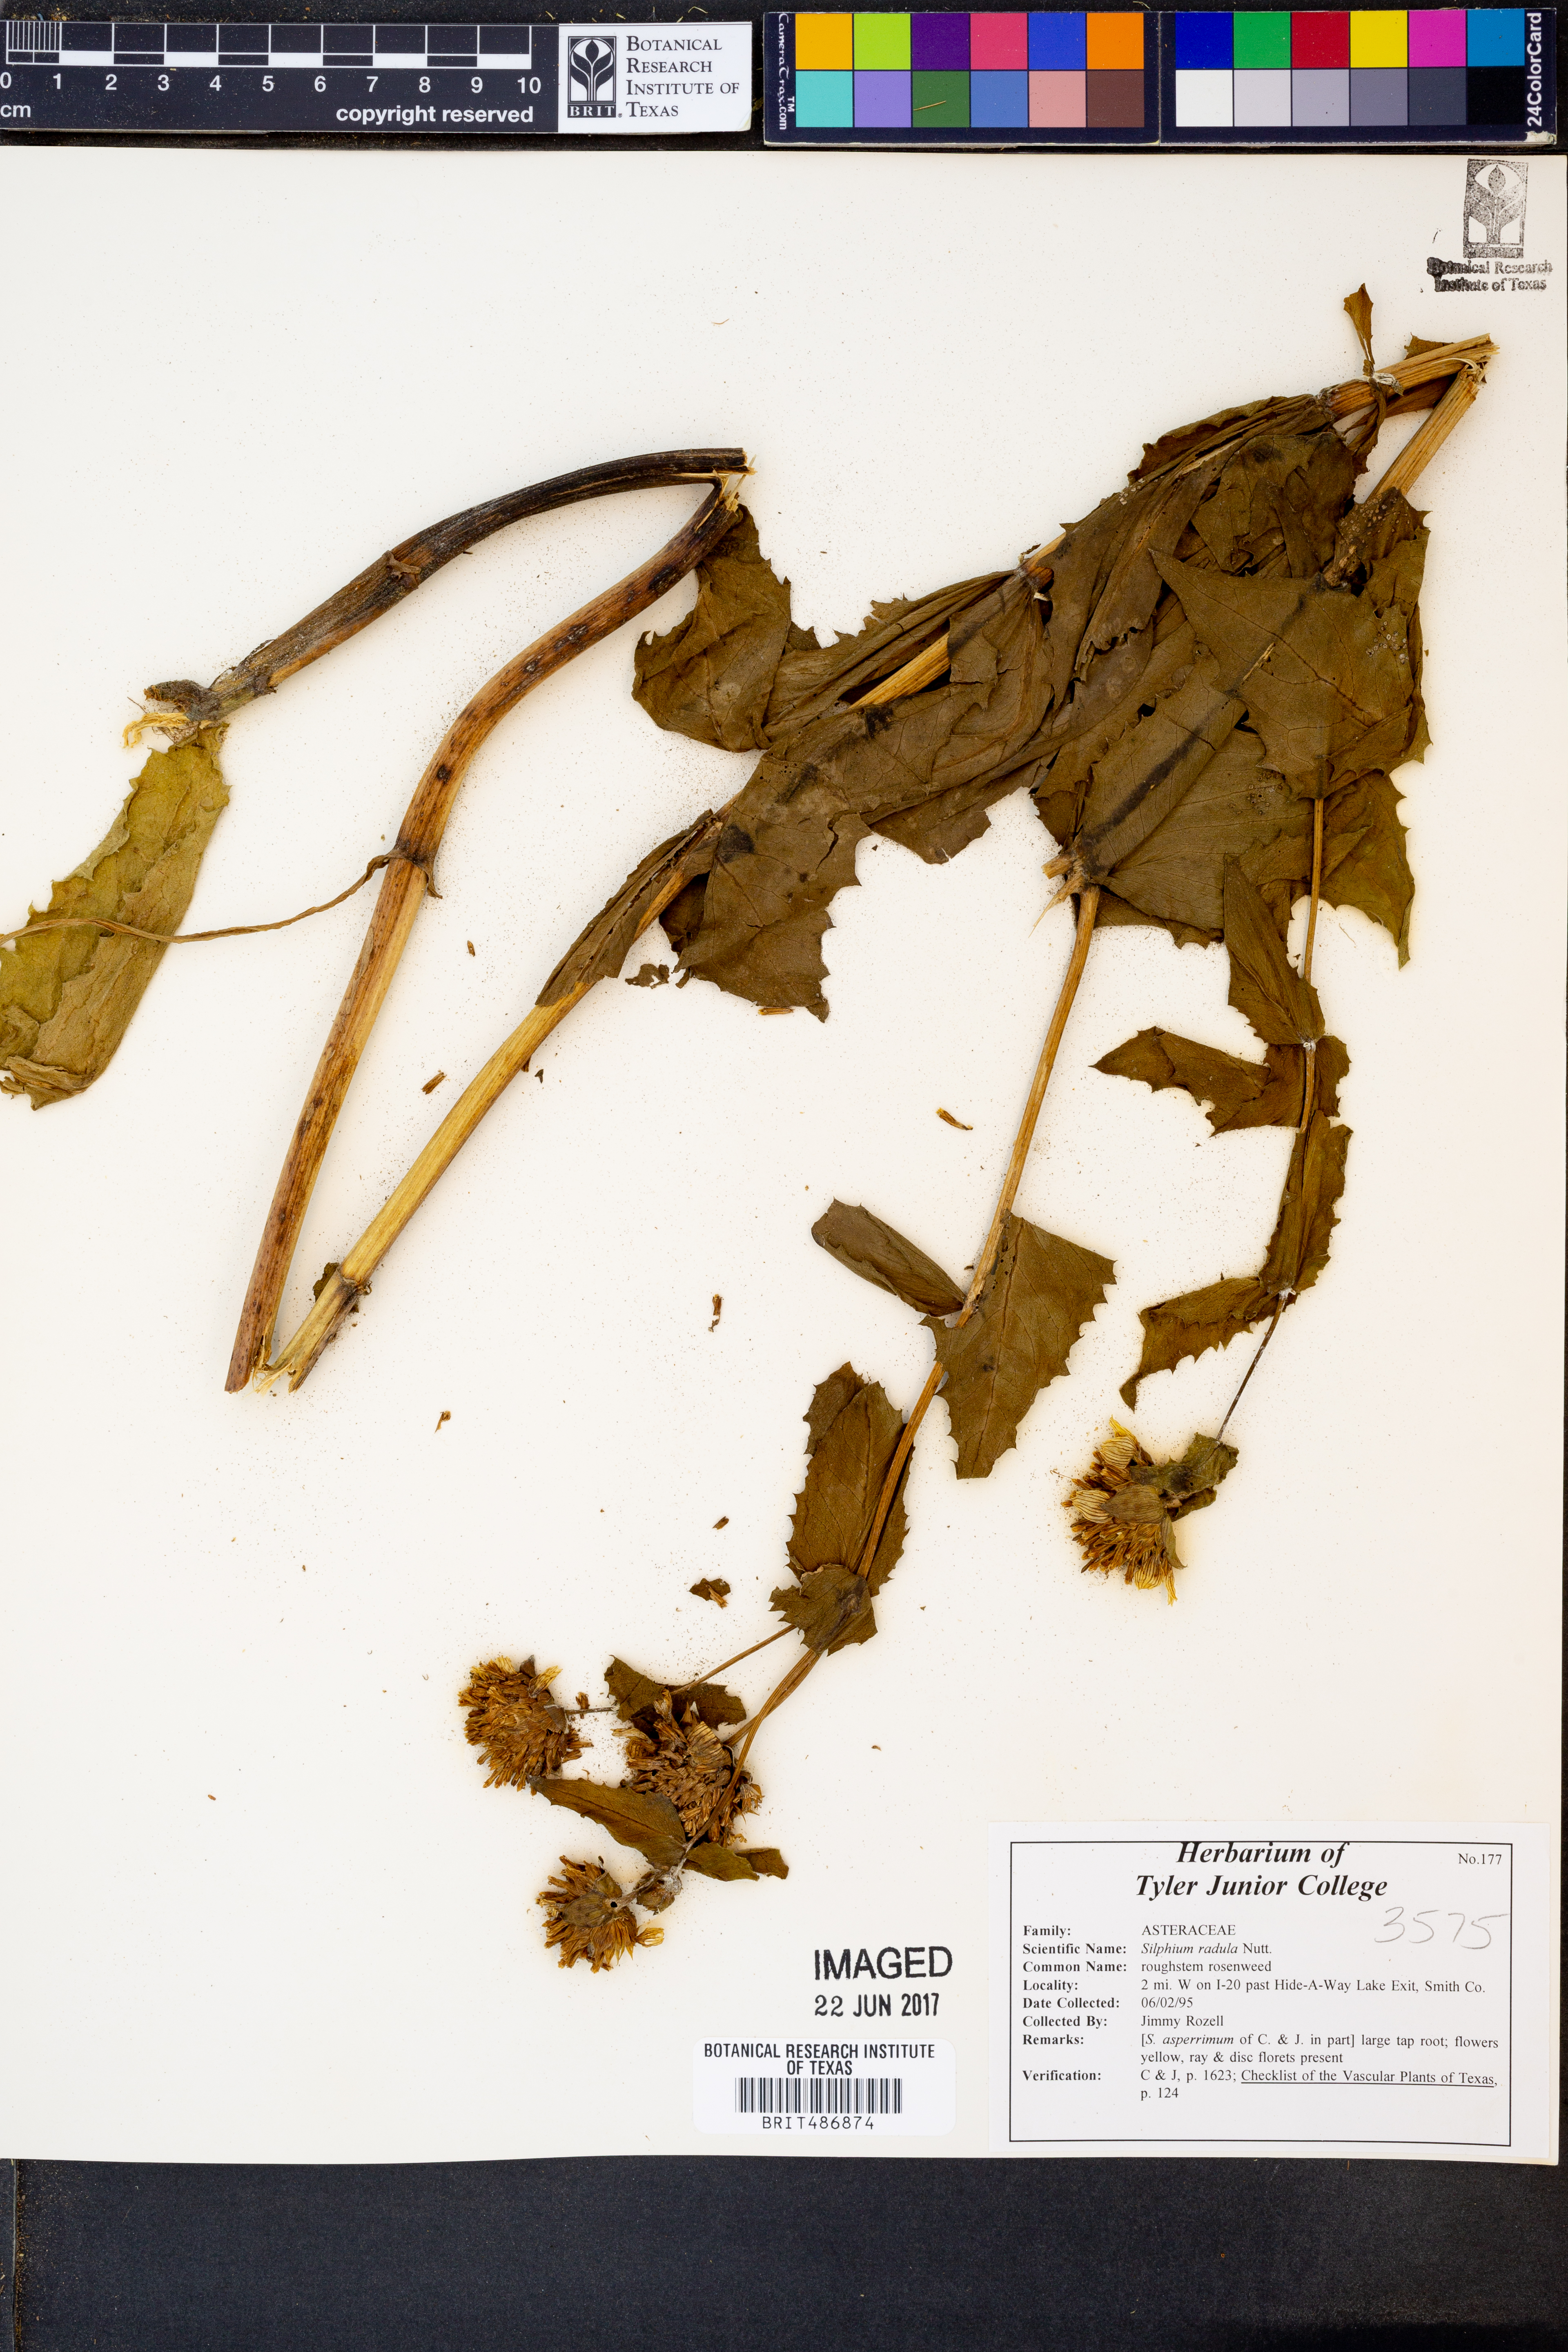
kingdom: Plantae
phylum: Tracheophyta
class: Magnoliopsida
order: Asterales
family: Asteraceae
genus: Silphium
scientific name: Silphium radula
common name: Roughleaf rosinweed
